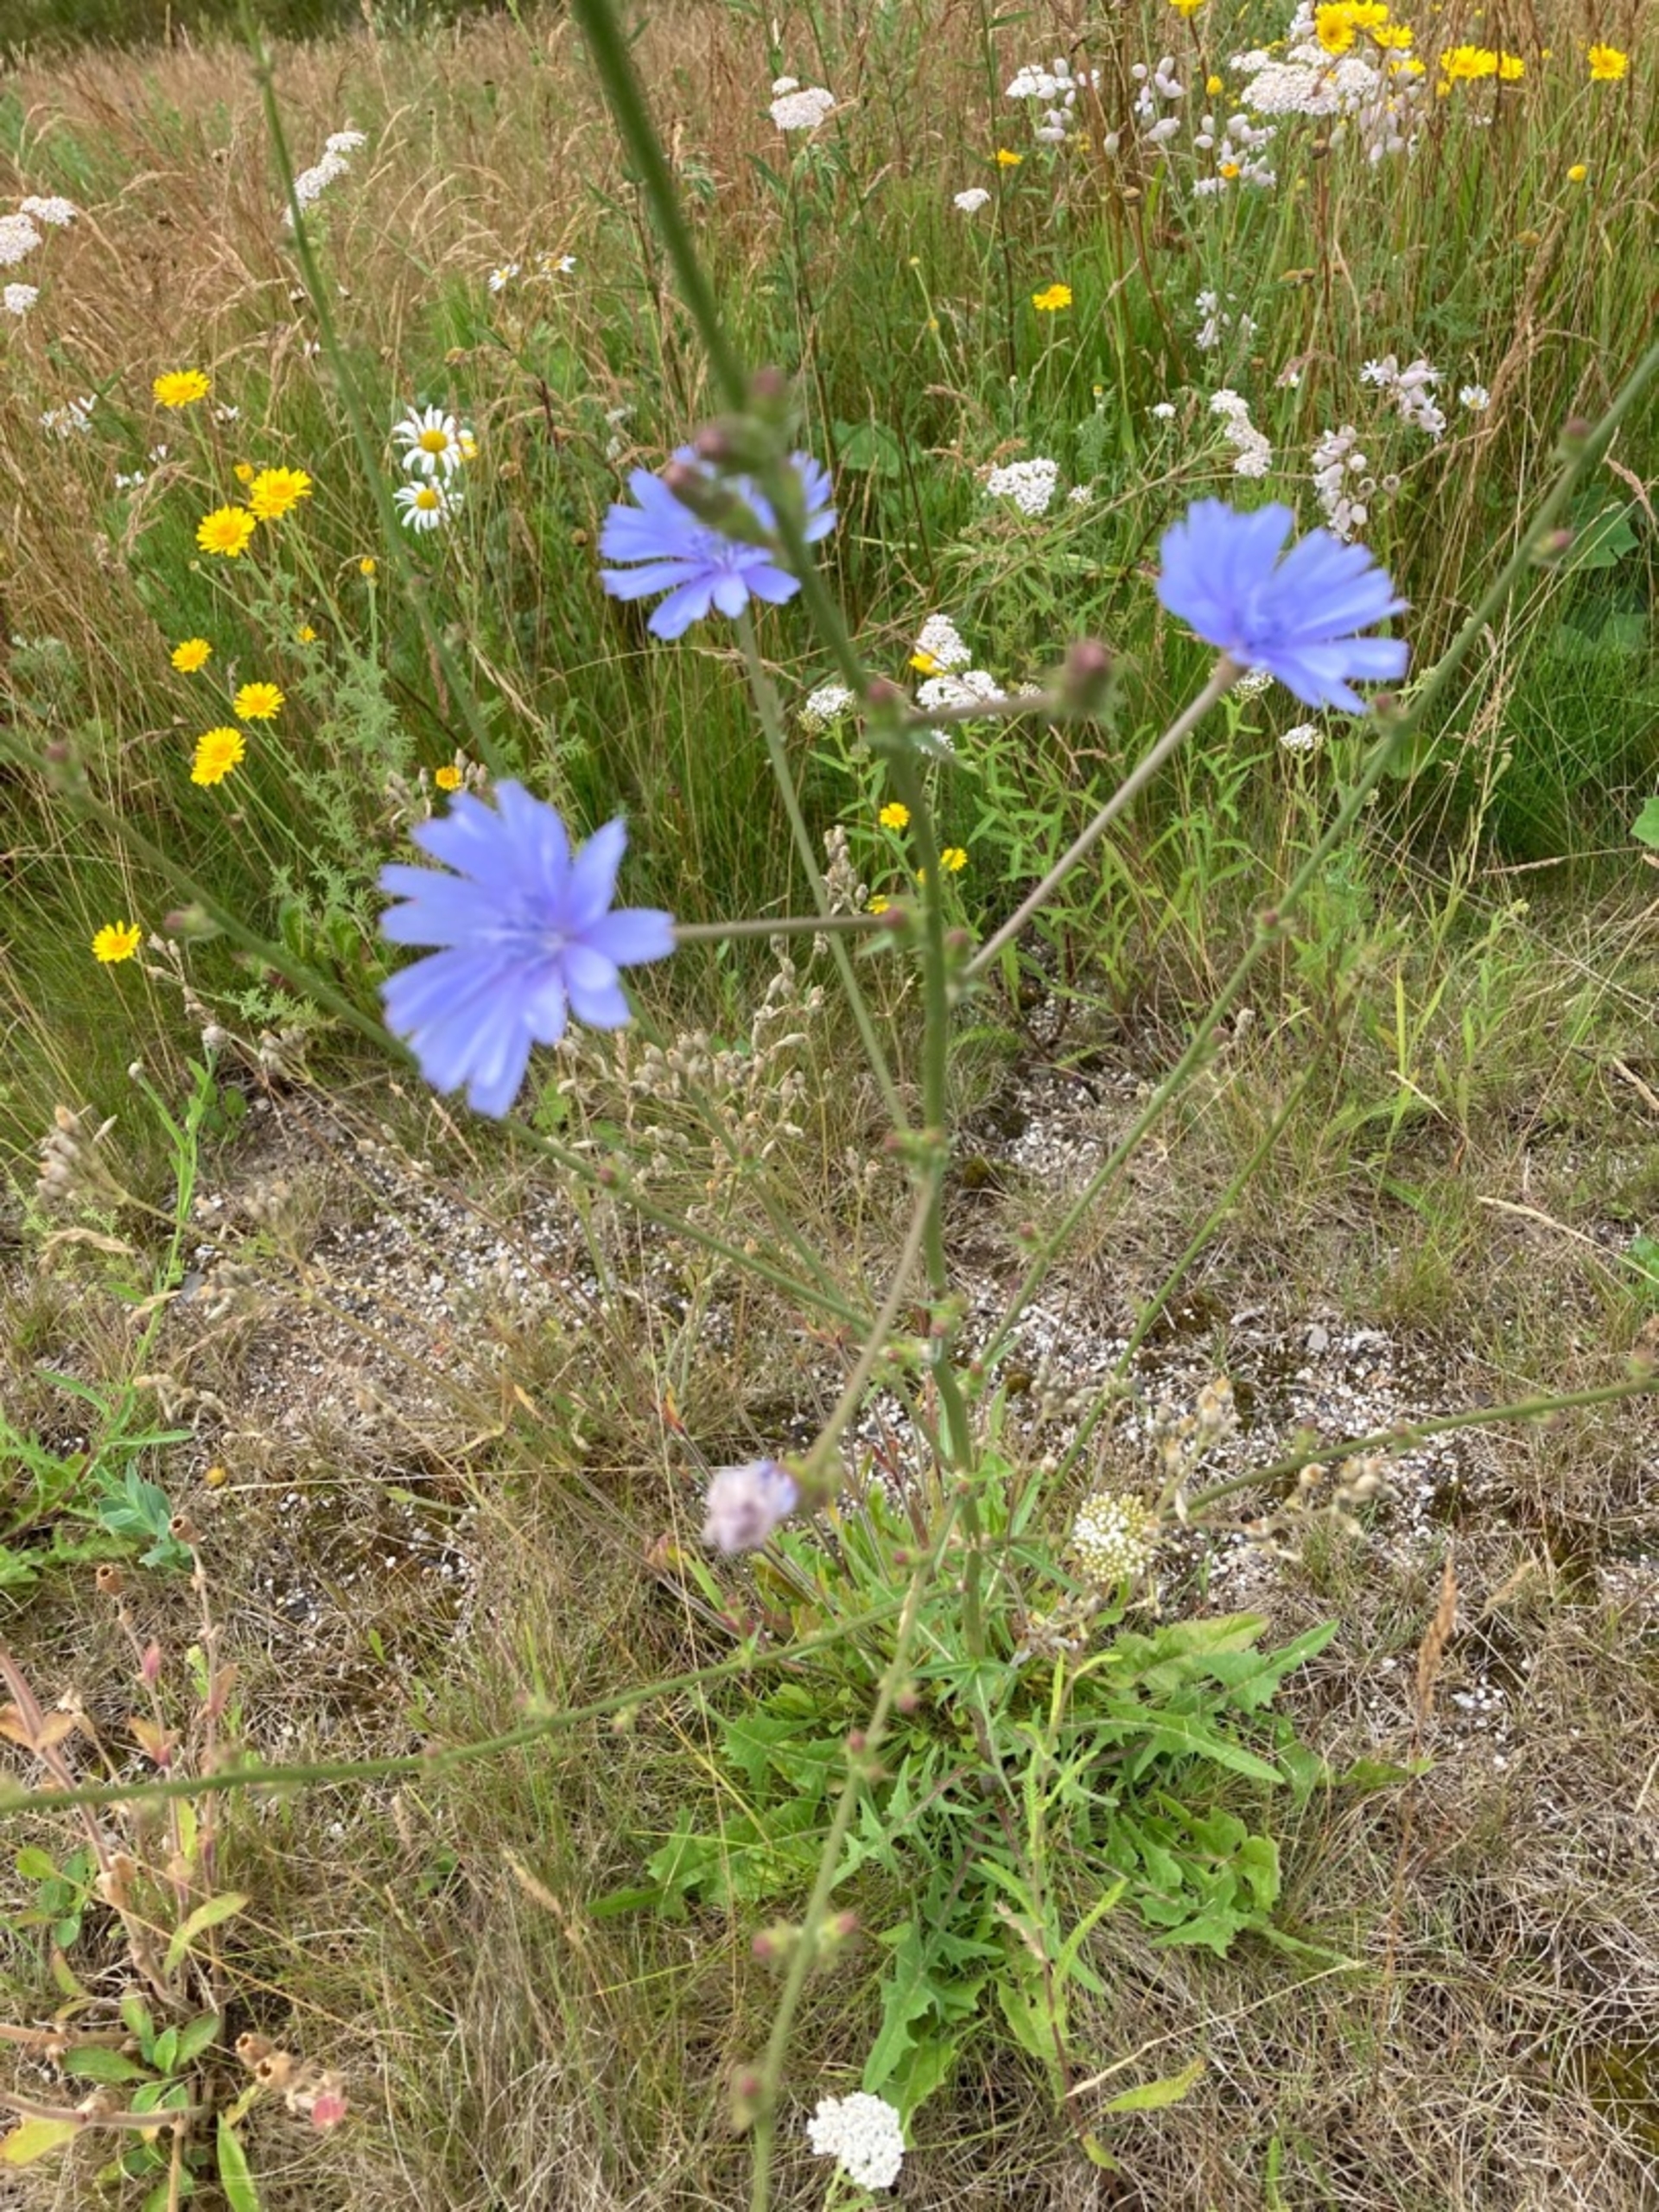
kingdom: Plantae
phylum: Tracheophyta
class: Magnoliopsida
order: Asterales
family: Asteraceae
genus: Cichorium
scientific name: Cichorium intybus
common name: Cikorie
